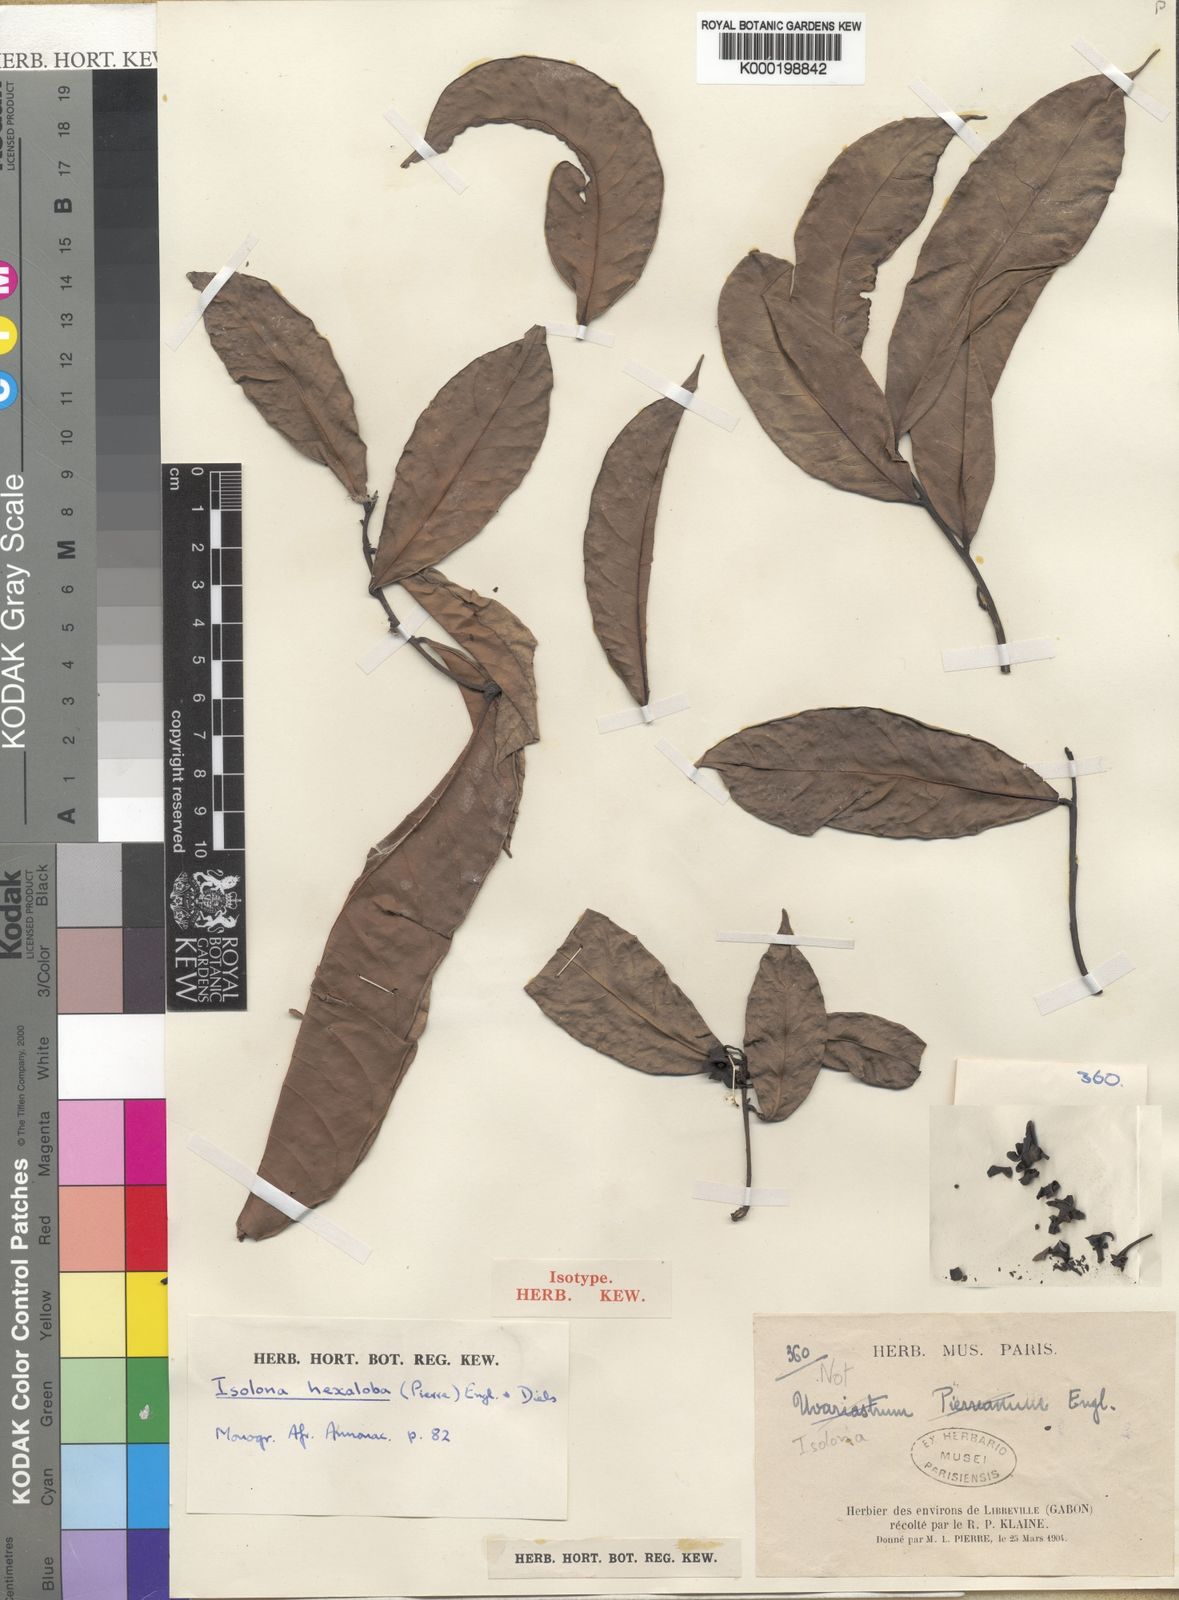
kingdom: Plantae
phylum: Tracheophyta
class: Magnoliopsida
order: Magnoliales
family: Annonaceae
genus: Isolona
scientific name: Isolona hexaloba
